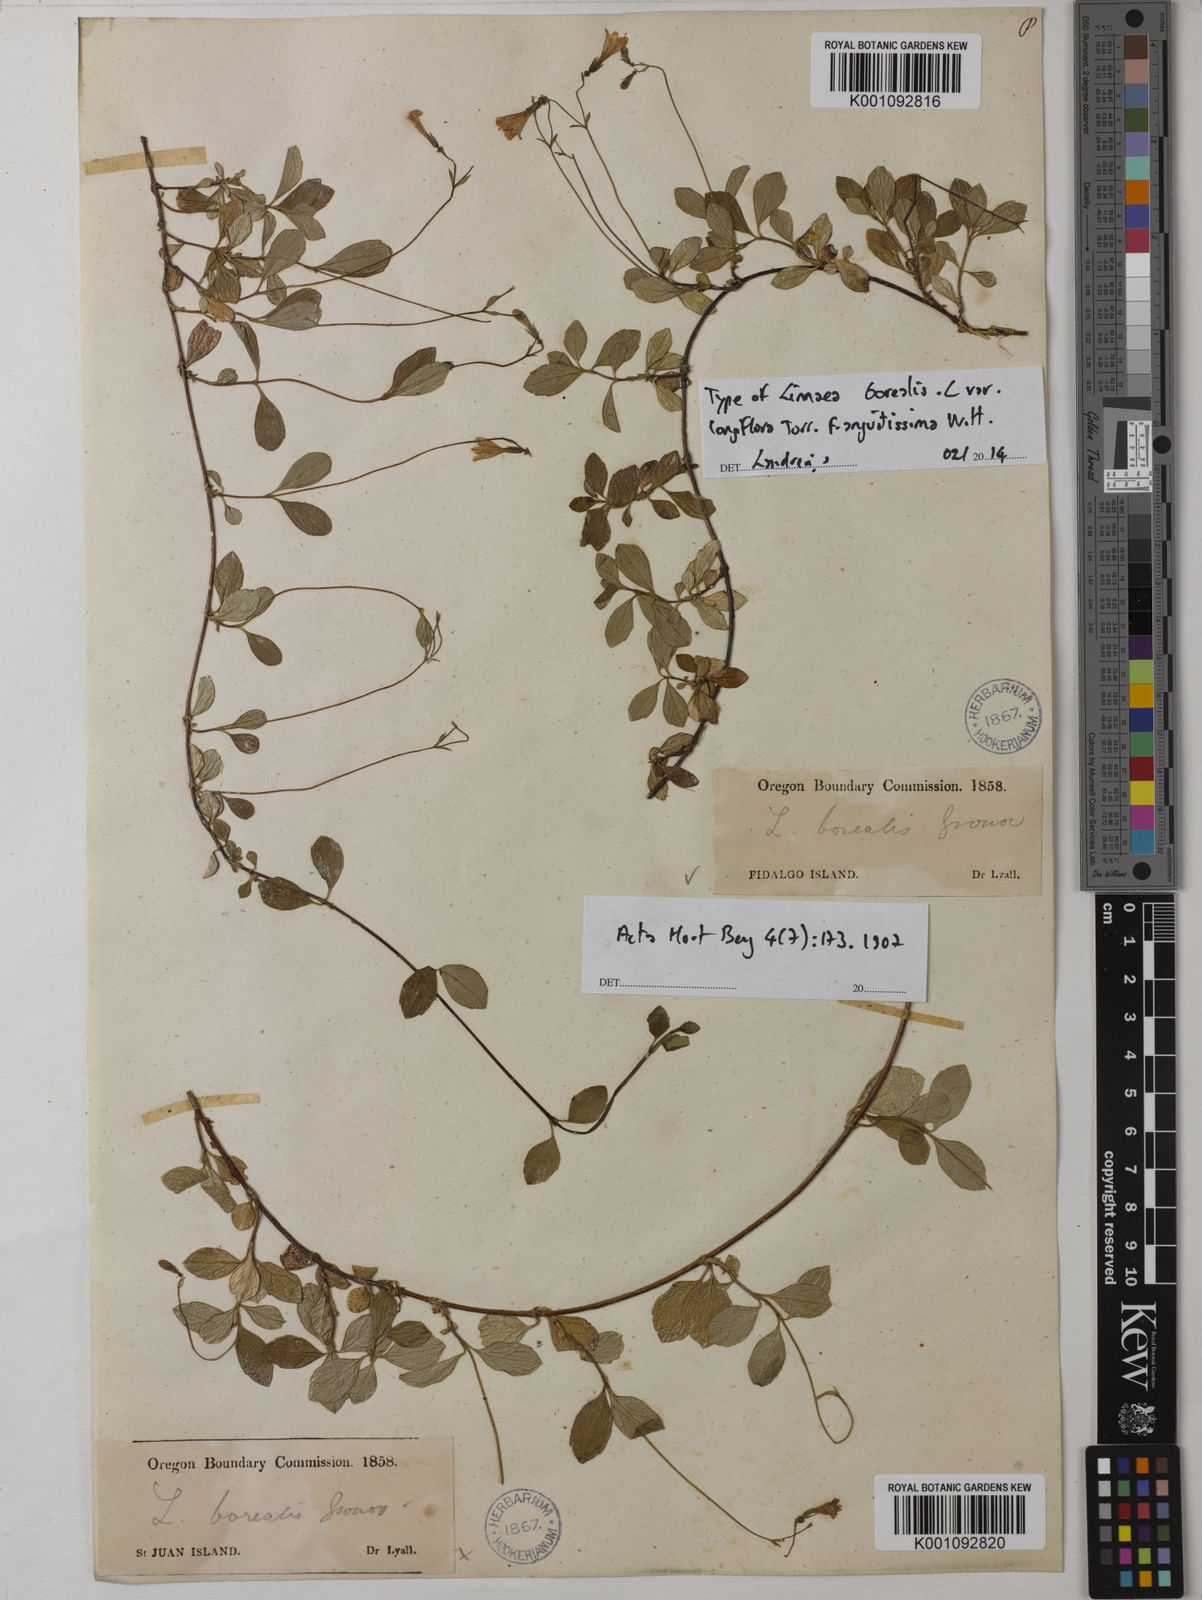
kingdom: Plantae
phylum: Tracheophyta
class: Magnoliopsida
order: Dipsacales
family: Caprifoliaceae
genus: Linnaea
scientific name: Linnaea borealis
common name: Twinflower
